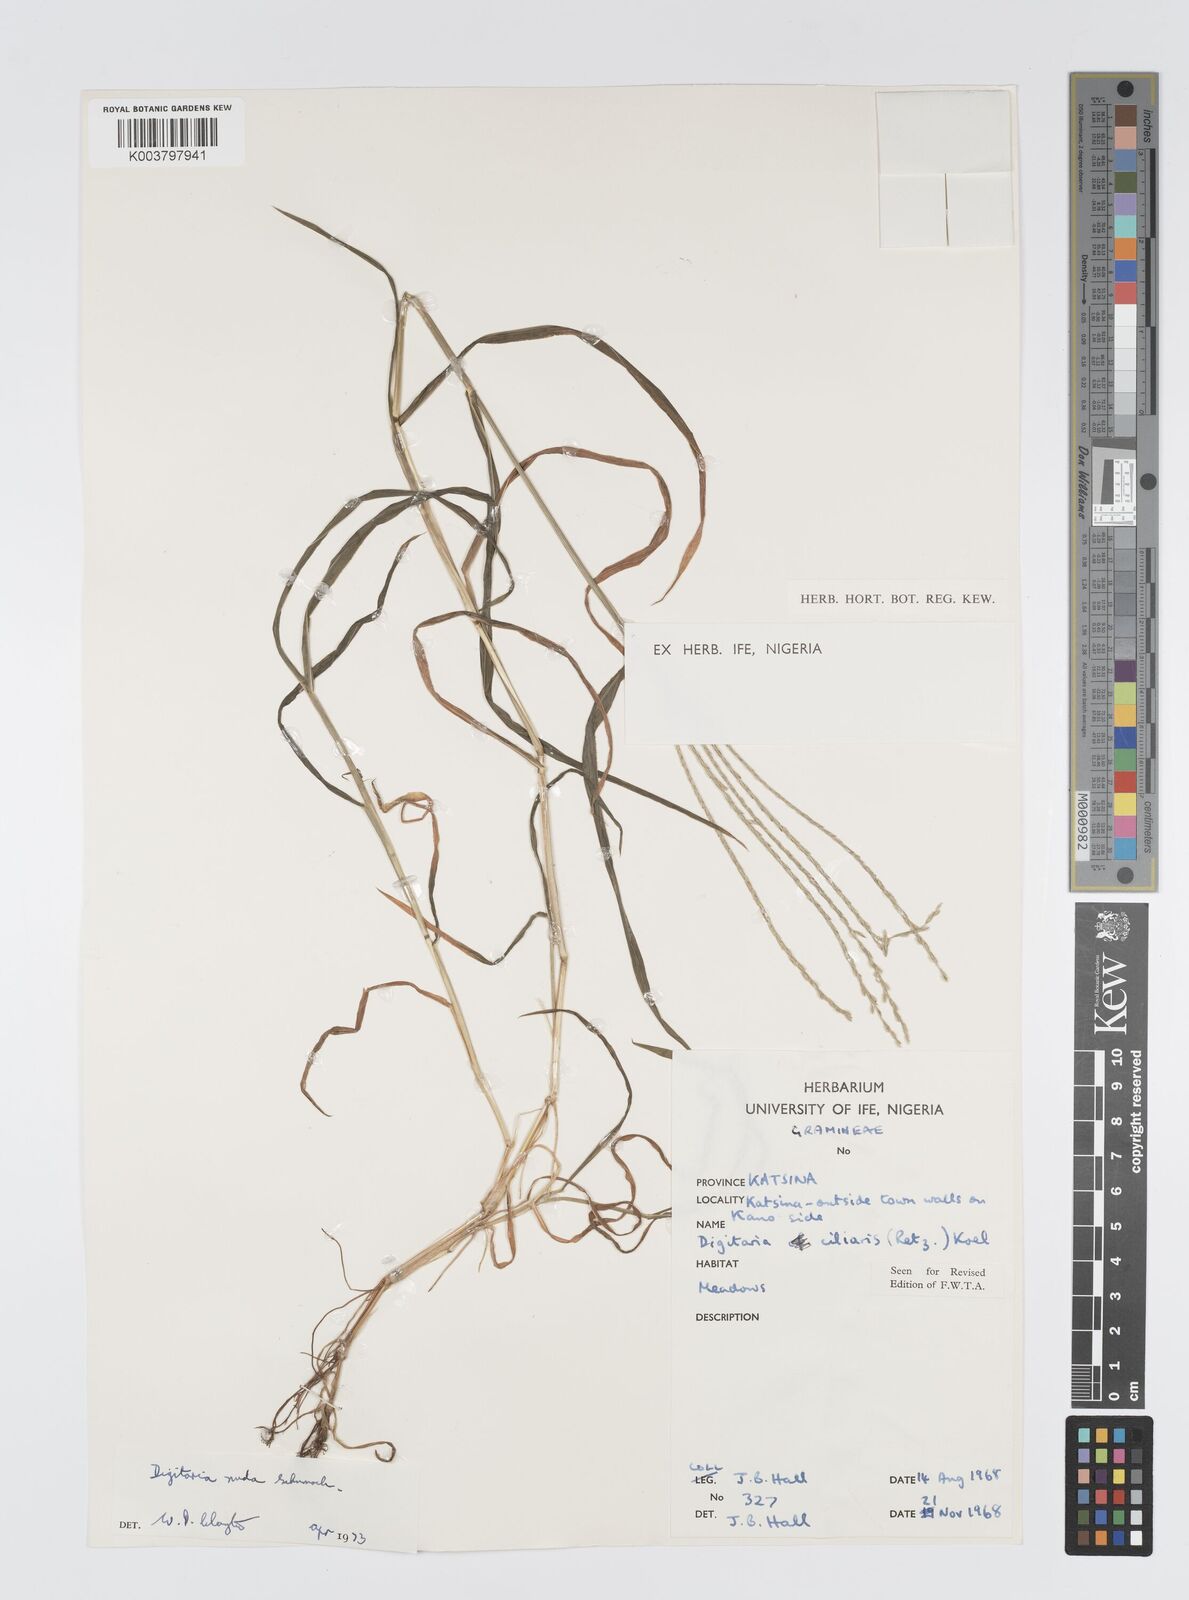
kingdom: Plantae
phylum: Tracheophyta
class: Liliopsida
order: Poales
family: Poaceae
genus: Digitaria
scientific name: Digitaria nuda
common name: Naked crabgrass
